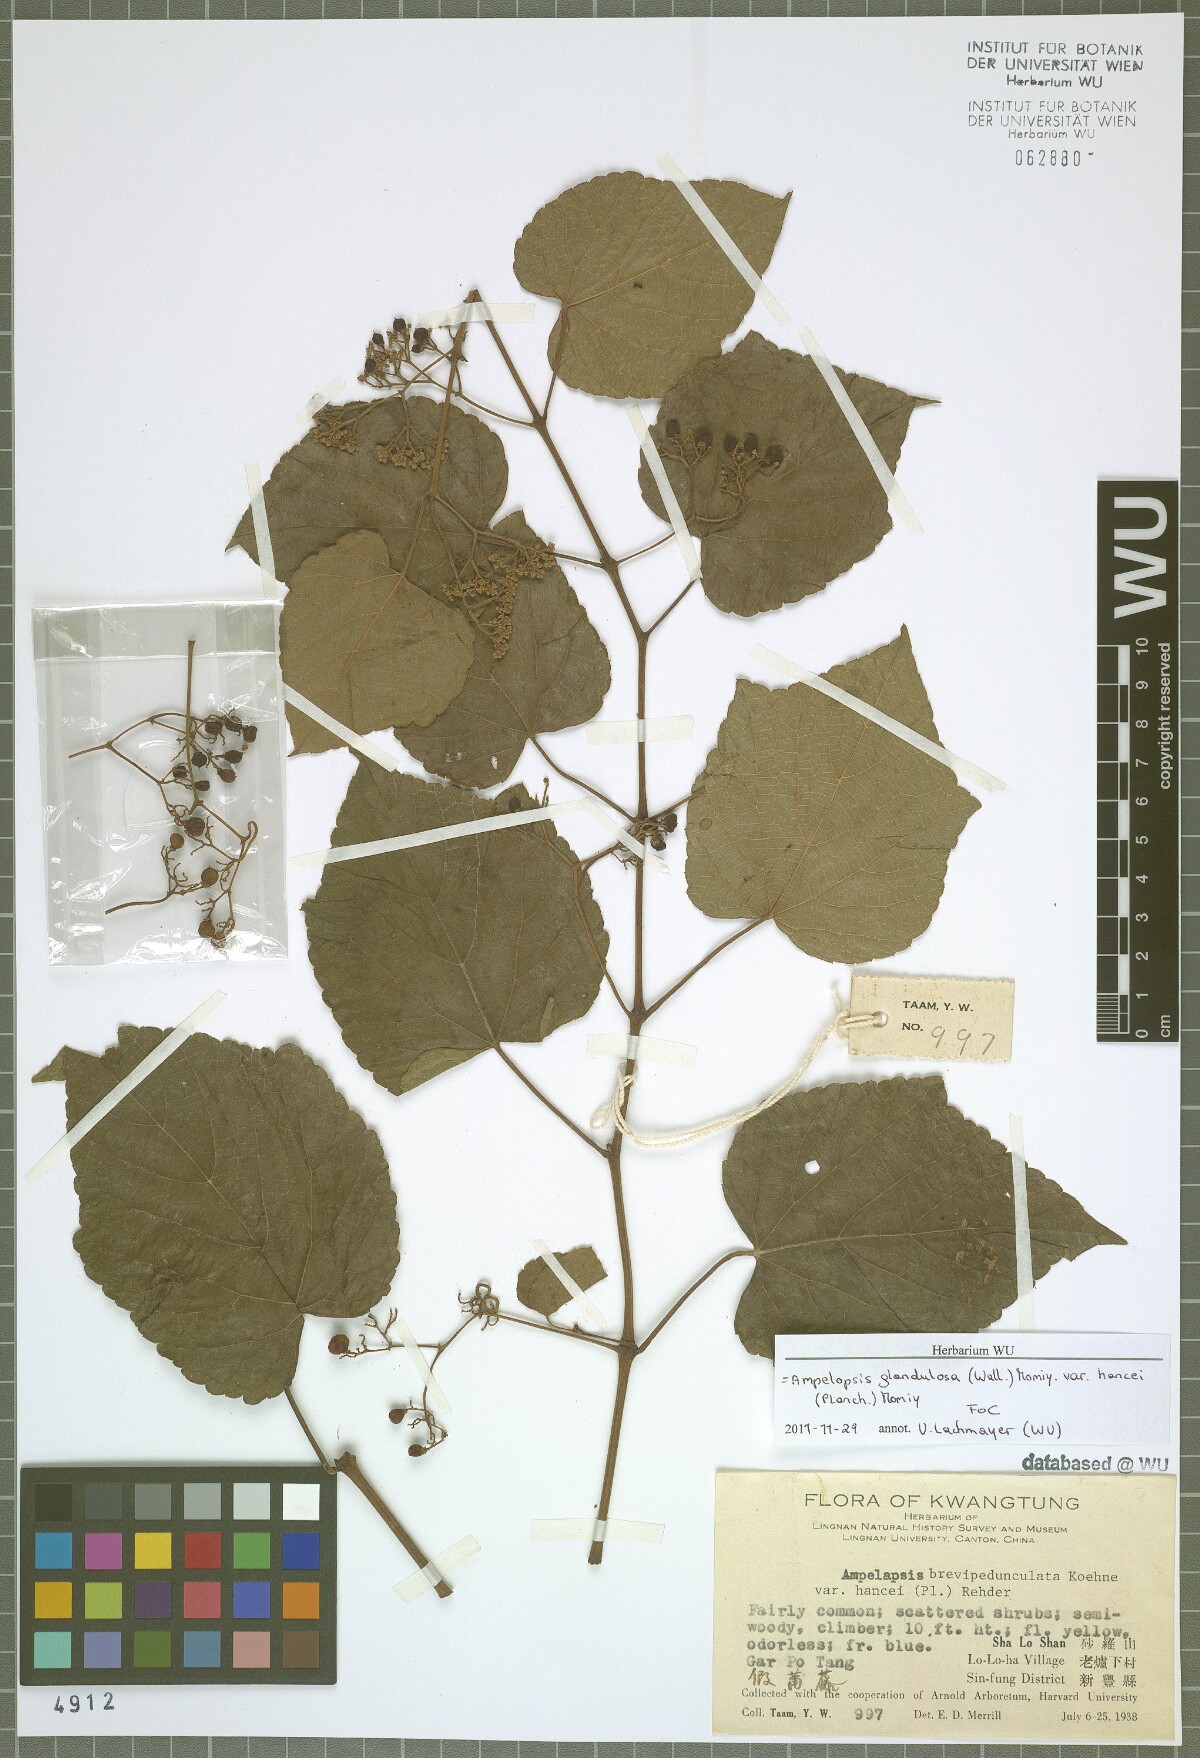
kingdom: Plantae
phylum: Tracheophyta
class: Magnoliopsida
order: Vitales
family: Vitaceae
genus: Ampelopsis
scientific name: Ampelopsis glandulosa
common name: Amur peppervine
